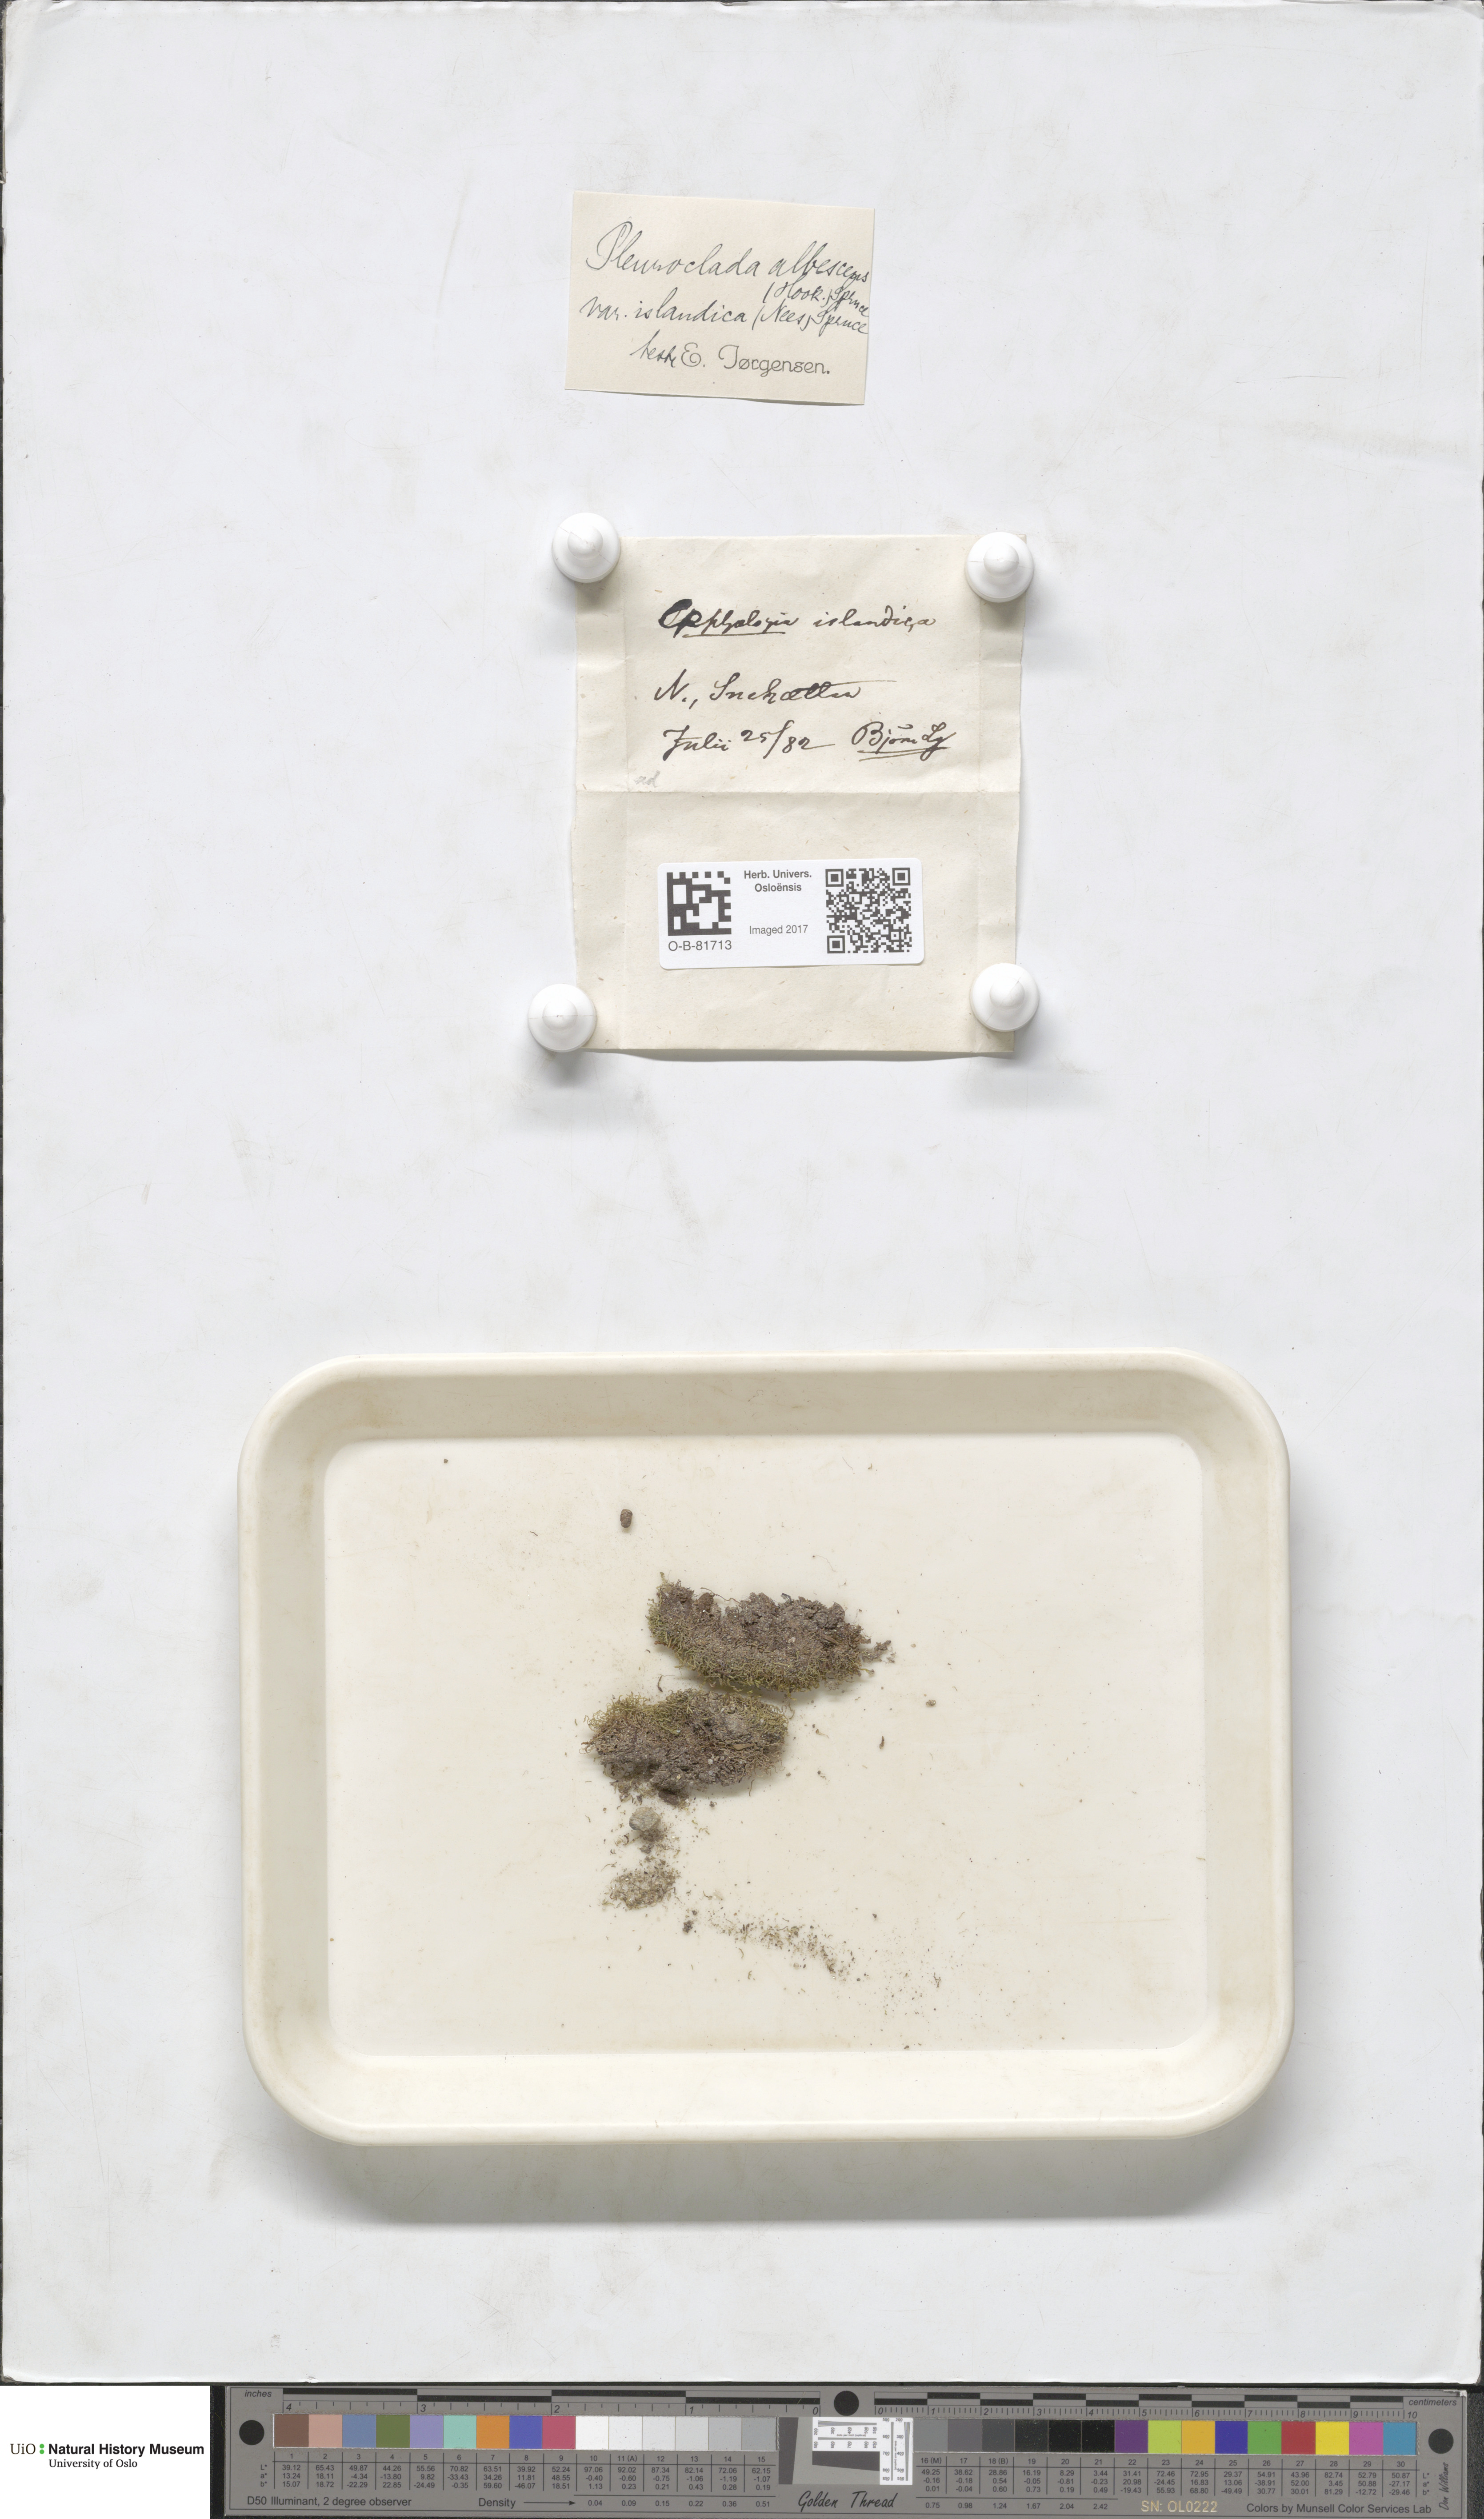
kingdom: Plantae
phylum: Marchantiophyta
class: Jungermanniopsida
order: Jungermanniales
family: Cephaloziaceae
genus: Fuscocephaloziopsis
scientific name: Fuscocephaloziopsis albescens
